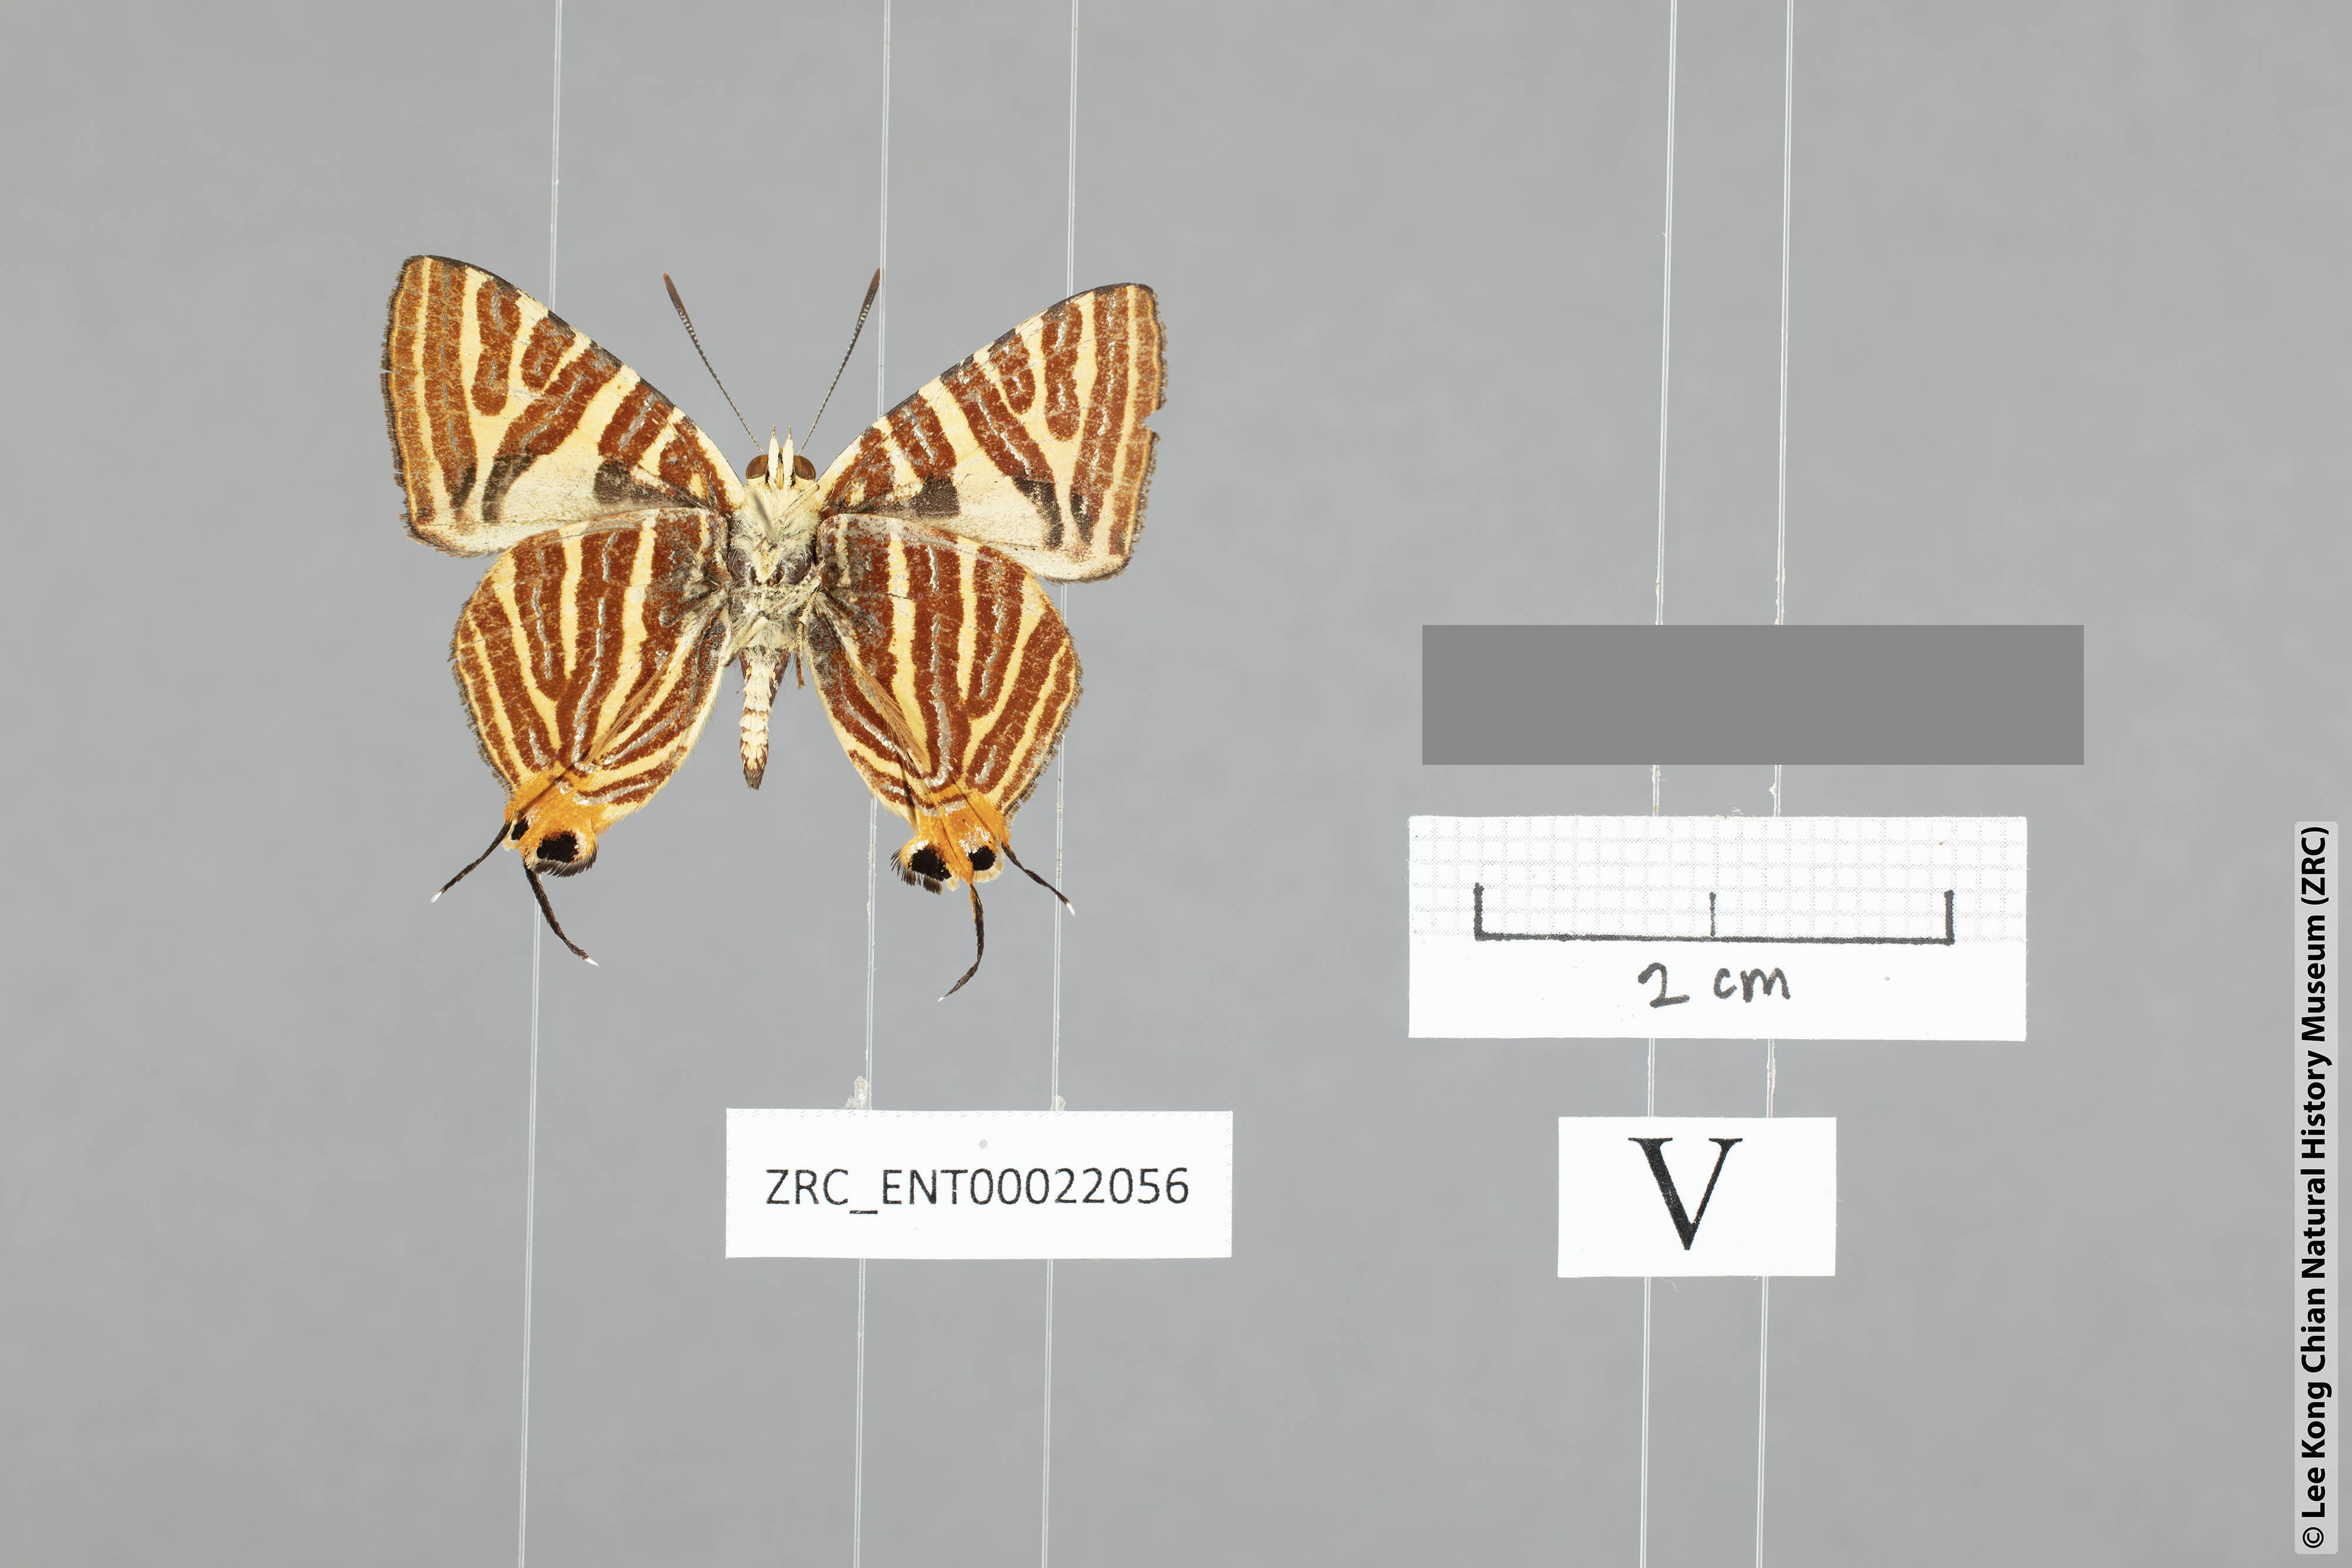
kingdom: Animalia
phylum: Arthropoda
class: Insecta
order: Lepidoptera
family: Lycaenidae
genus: Spindasis
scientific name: Spindasis kutu
